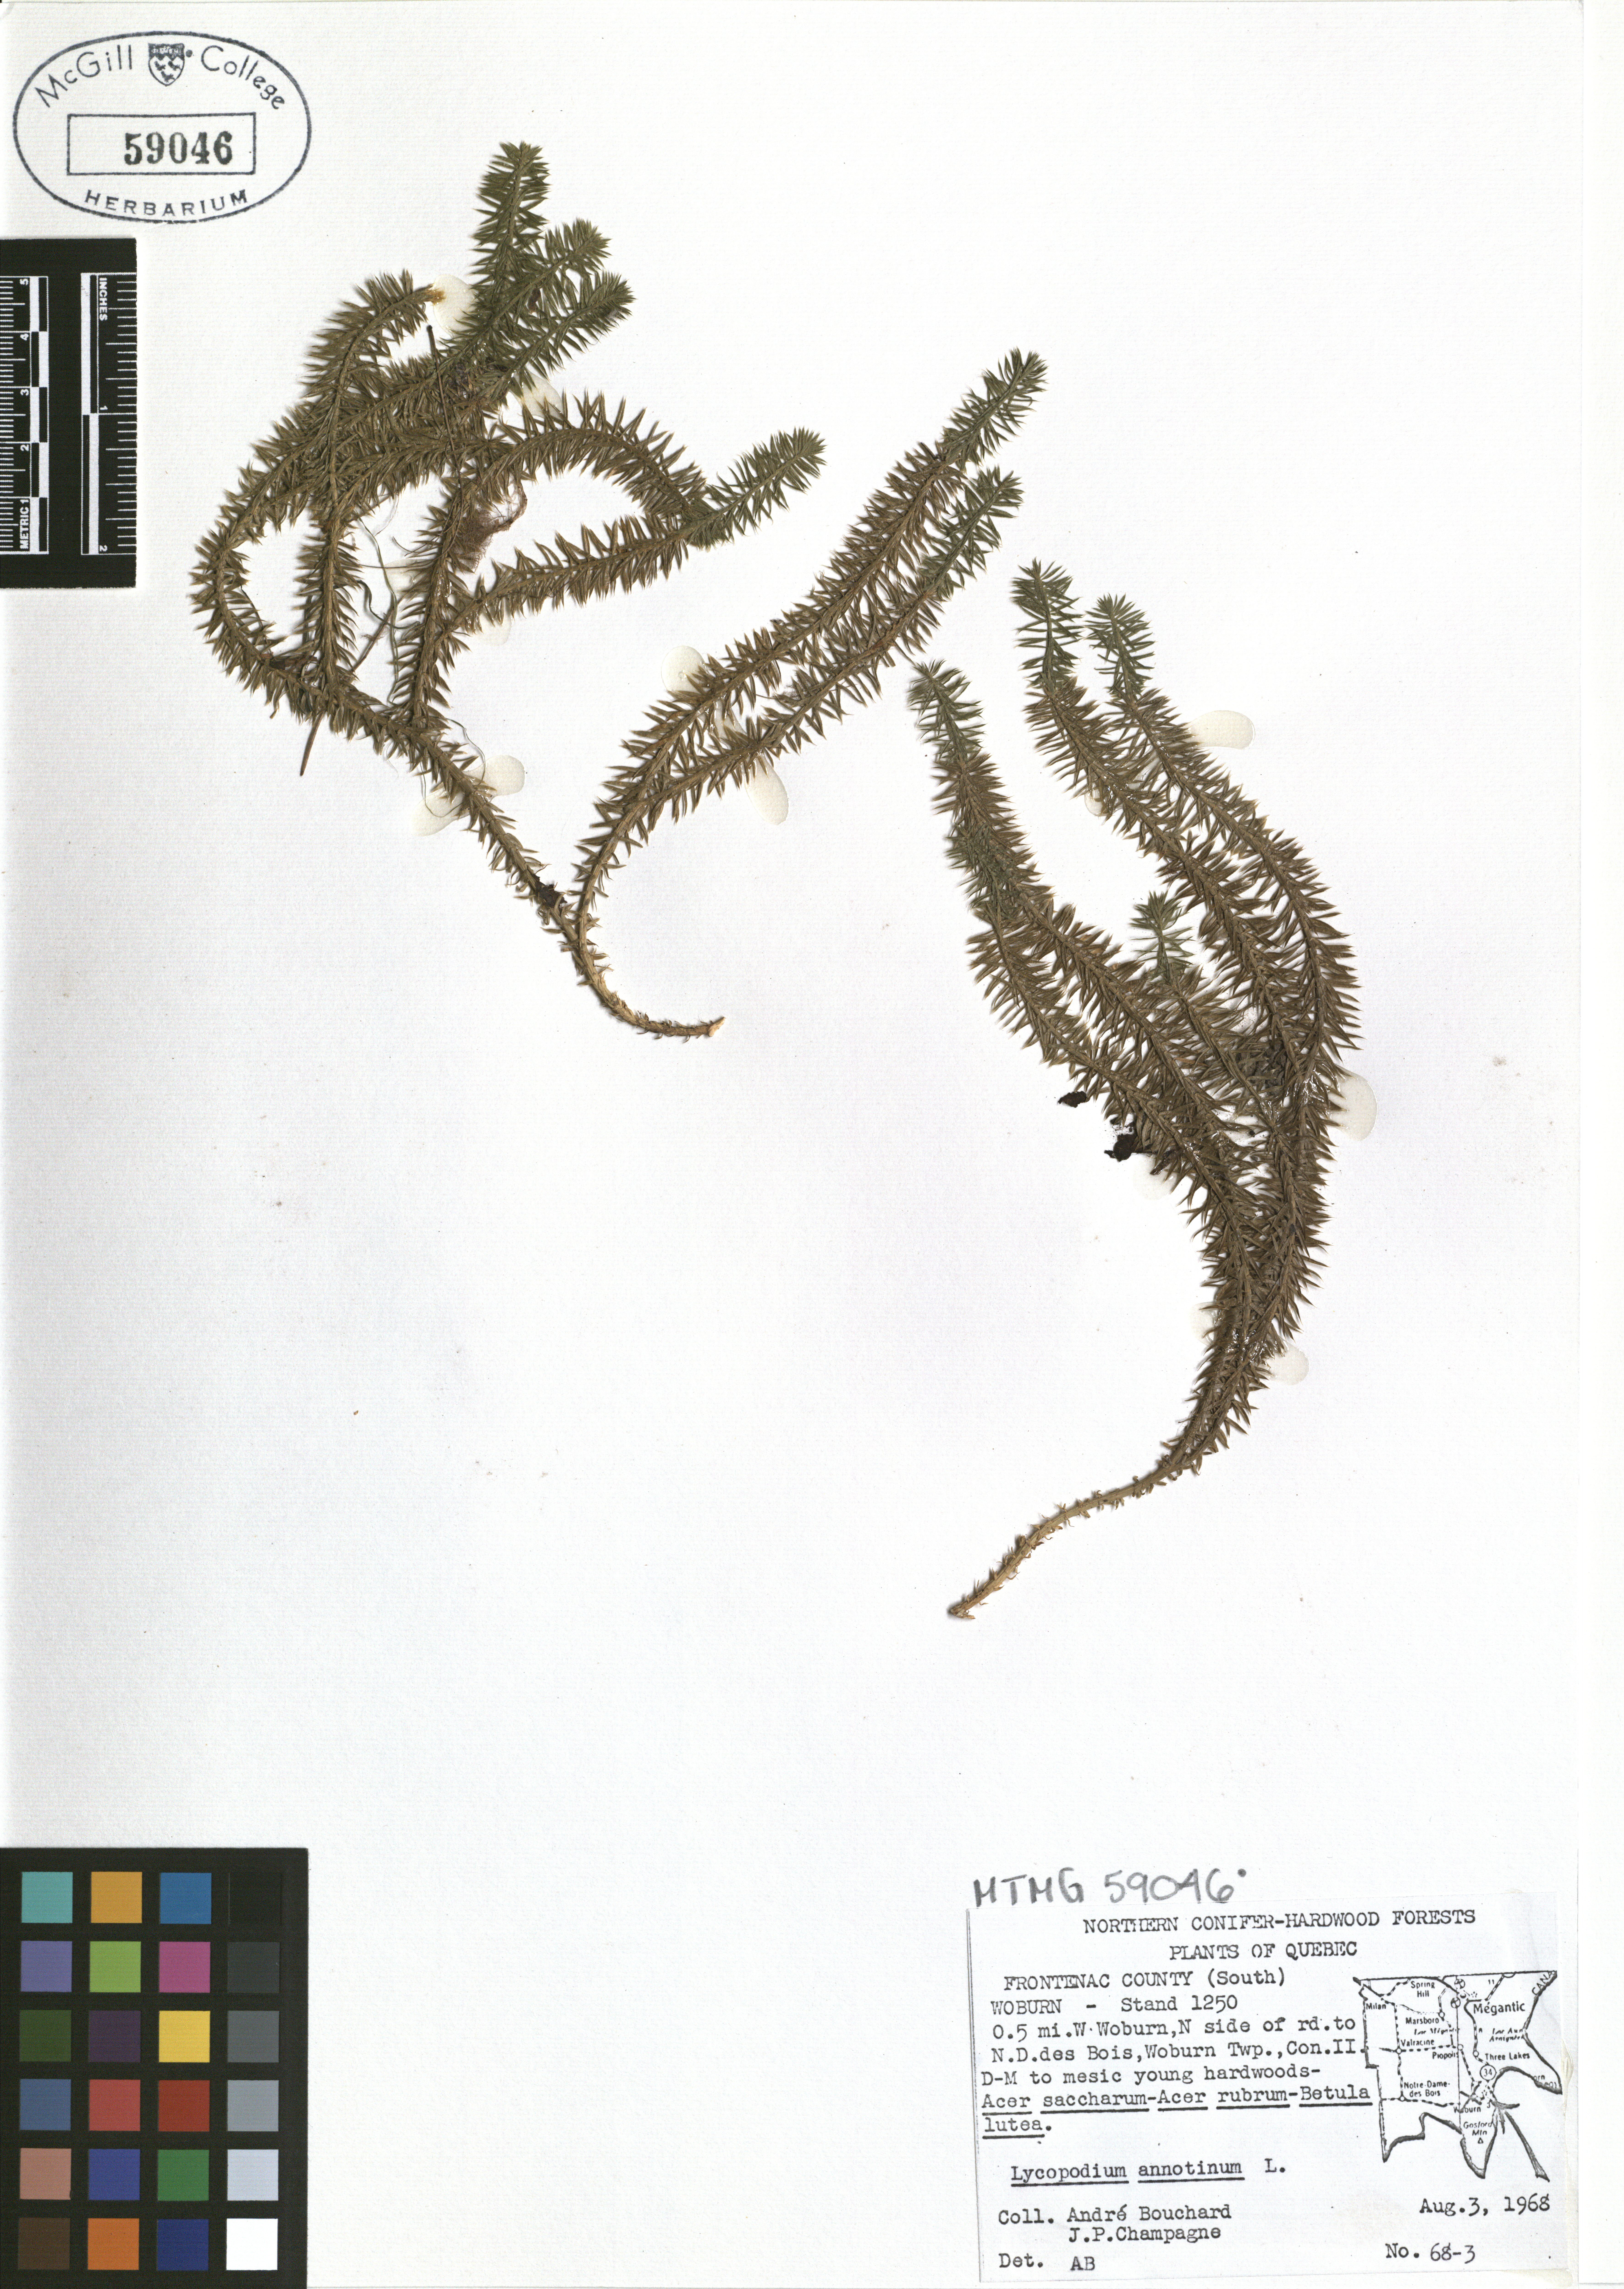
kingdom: Plantae
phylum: Tracheophyta
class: Lycopodiopsida
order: Lycopodiales
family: Lycopodiaceae
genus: Spinulum
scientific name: Spinulum annotinum
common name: Interrupted club-moss
